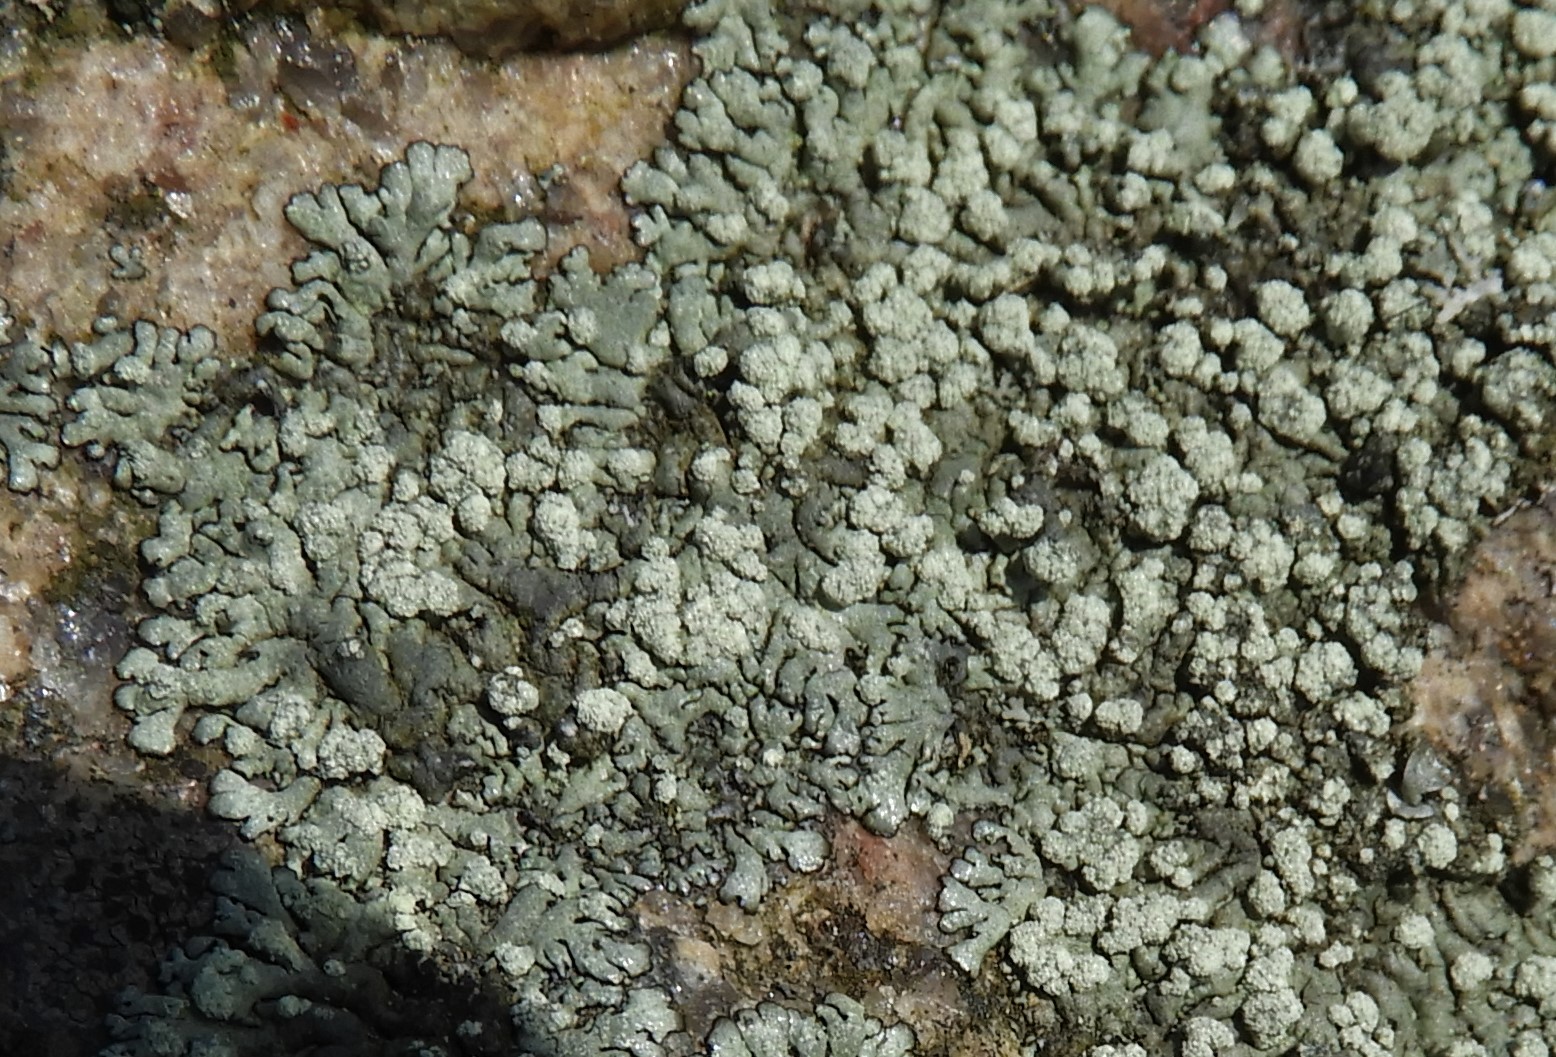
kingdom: Fungi
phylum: Ascomycota
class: Lecanoromycetes
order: Lecanorales
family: Parmeliaceae
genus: Xanthoparmelia
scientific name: Xanthoparmelia mougeotii
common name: liden skållav
